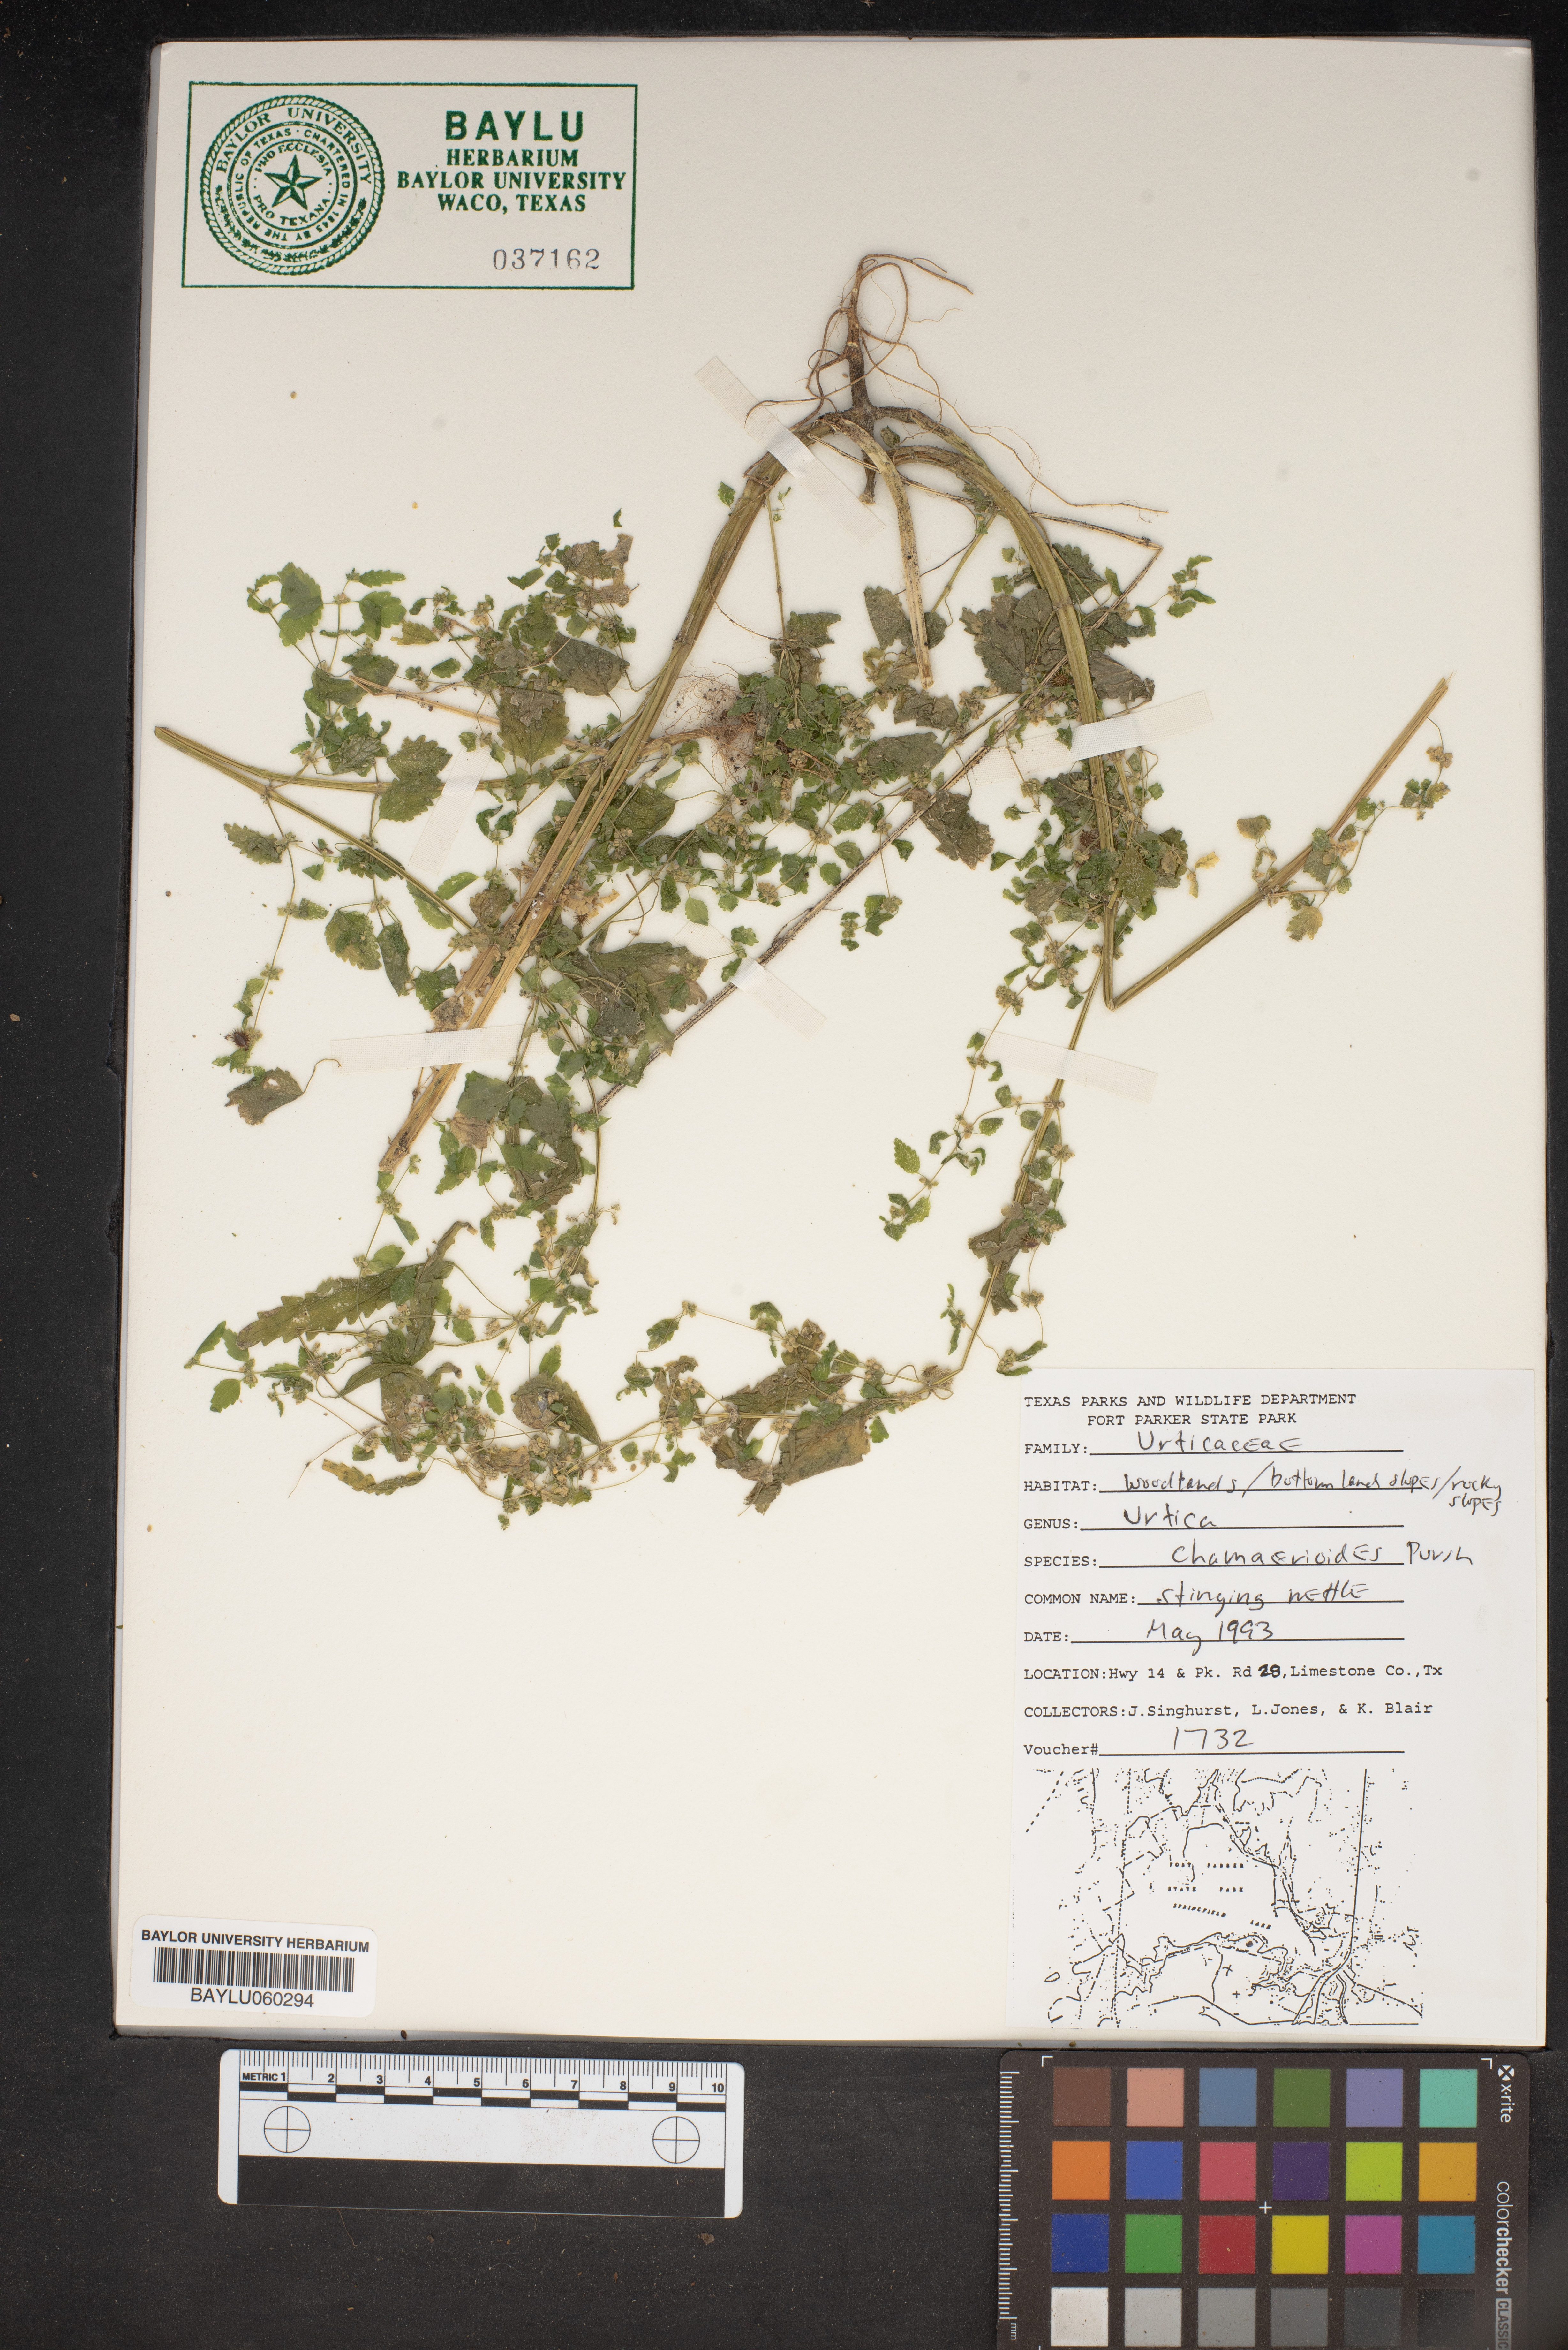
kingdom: Plantae
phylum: Tracheophyta
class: Magnoliopsida
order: Rosales
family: Urticaceae
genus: Urtica
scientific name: Urtica chamaedryoides
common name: Heart-leaf nettle
